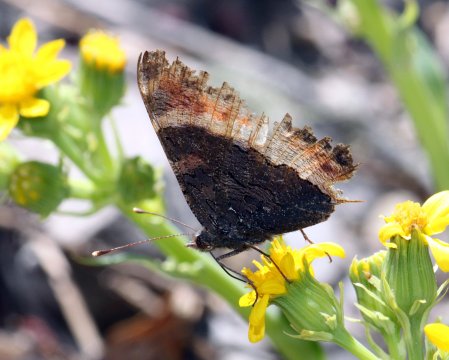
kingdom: Animalia
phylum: Arthropoda
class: Insecta
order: Lepidoptera
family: Nymphalidae
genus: Aglais
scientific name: Aglais milberti
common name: Milbert's Tortoiseshell
